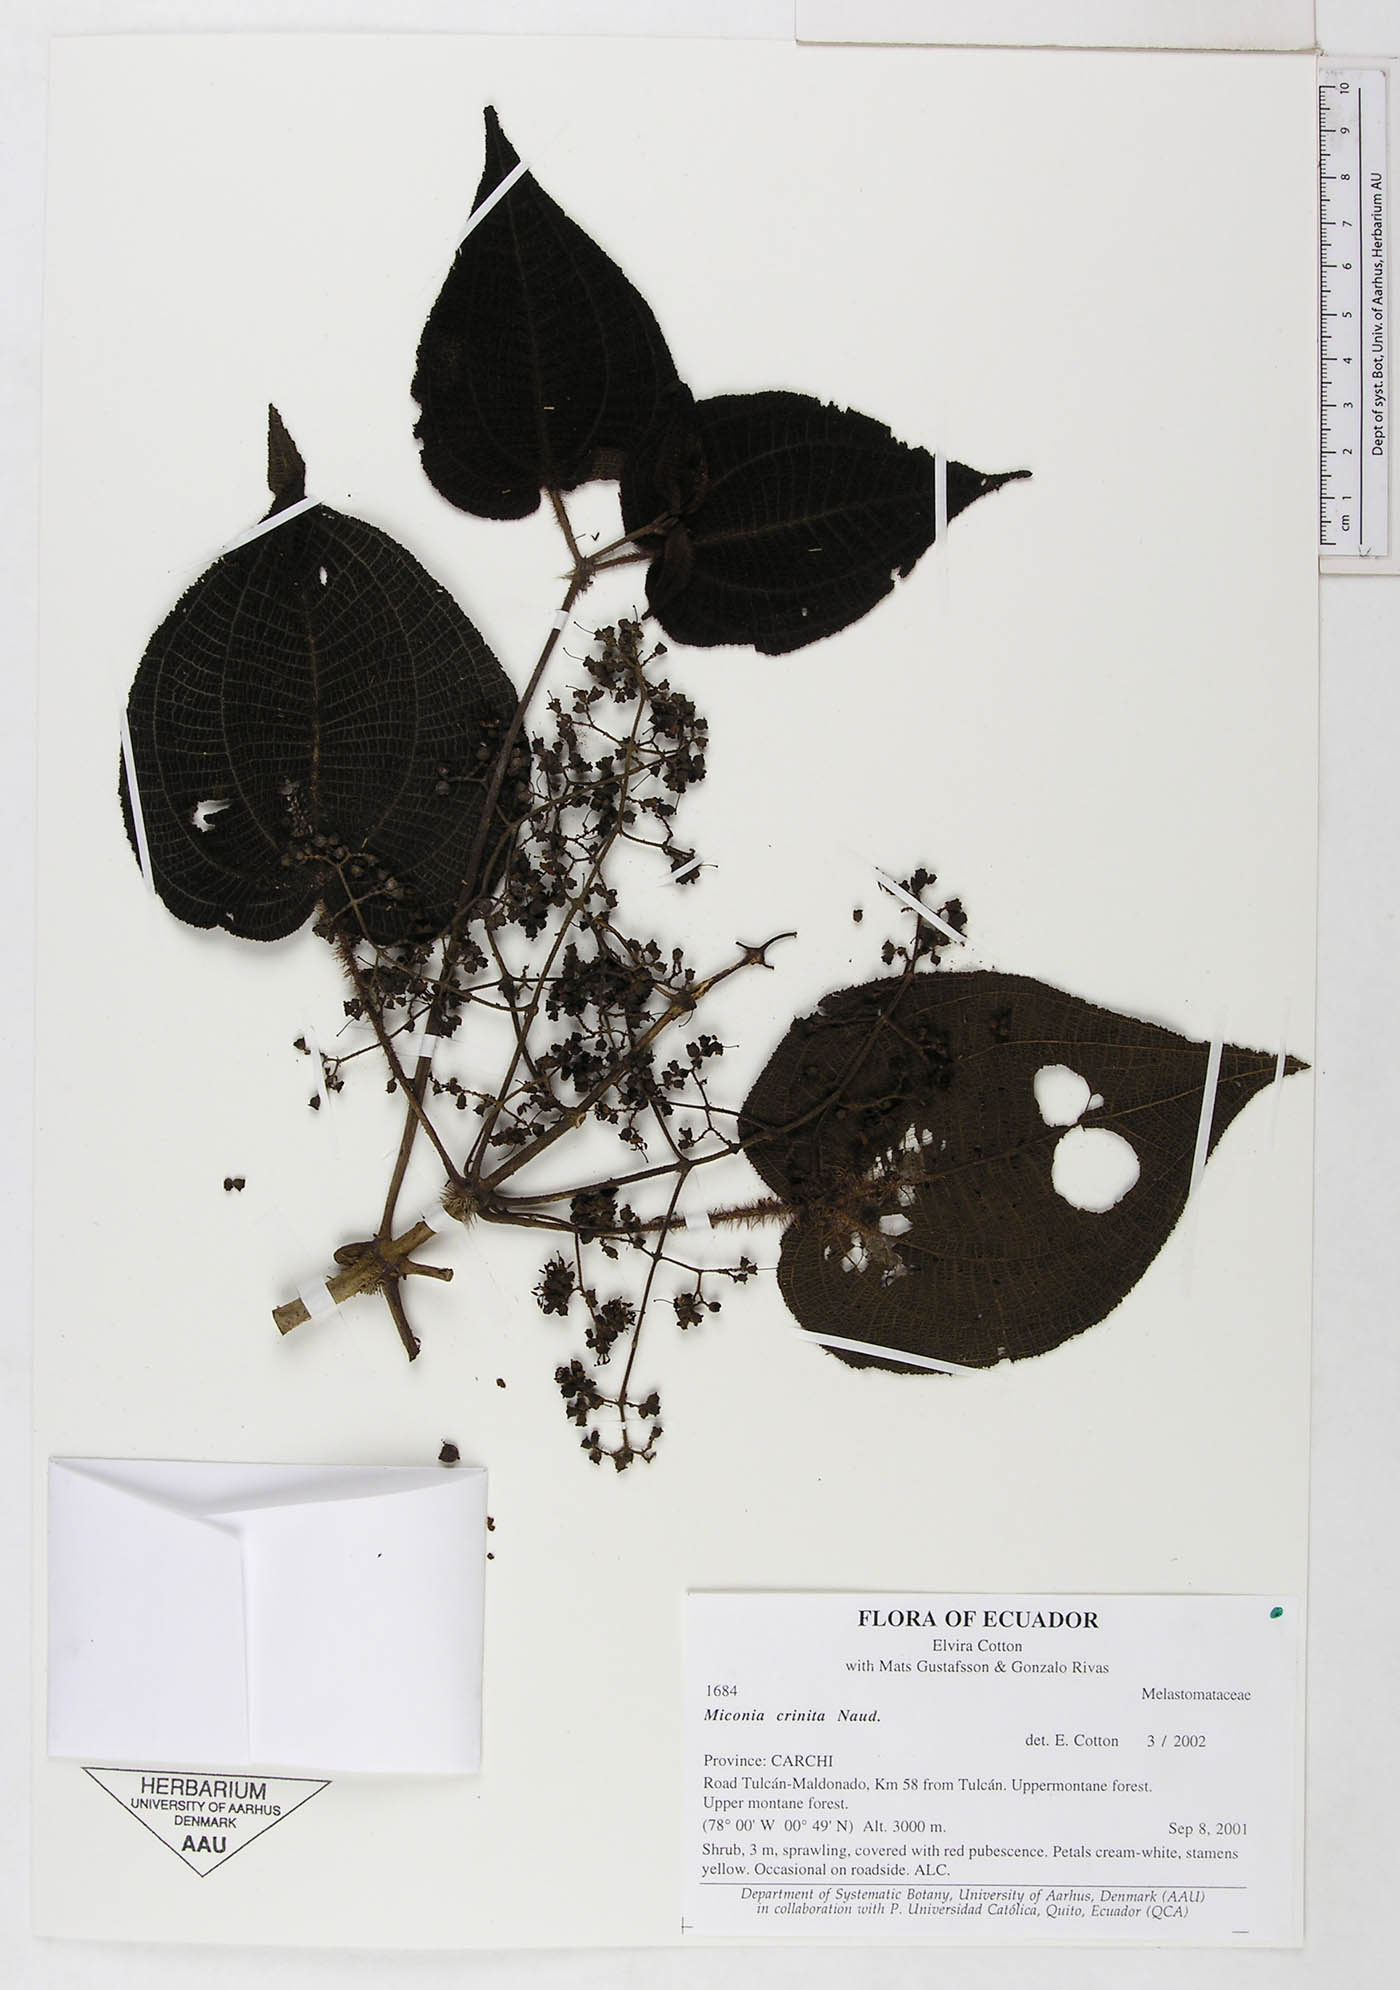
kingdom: Plantae
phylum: Tracheophyta
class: Magnoliopsida
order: Myrtales
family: Melastomataceae
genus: Miconia
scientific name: Miconia crinita
